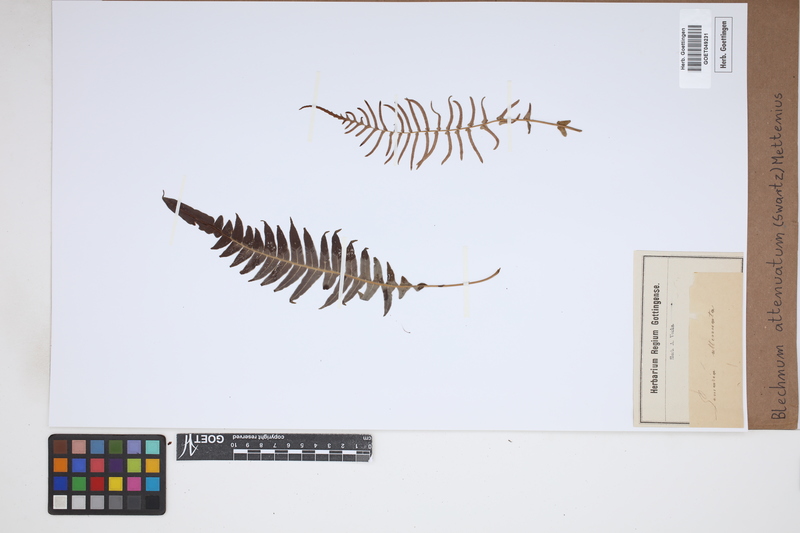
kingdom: Plantae
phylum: Tracheophyta
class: Polypodiopsida
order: Polypodiales
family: Blechnaceae
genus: Lomaridium
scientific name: Lomaridium attenuatum
